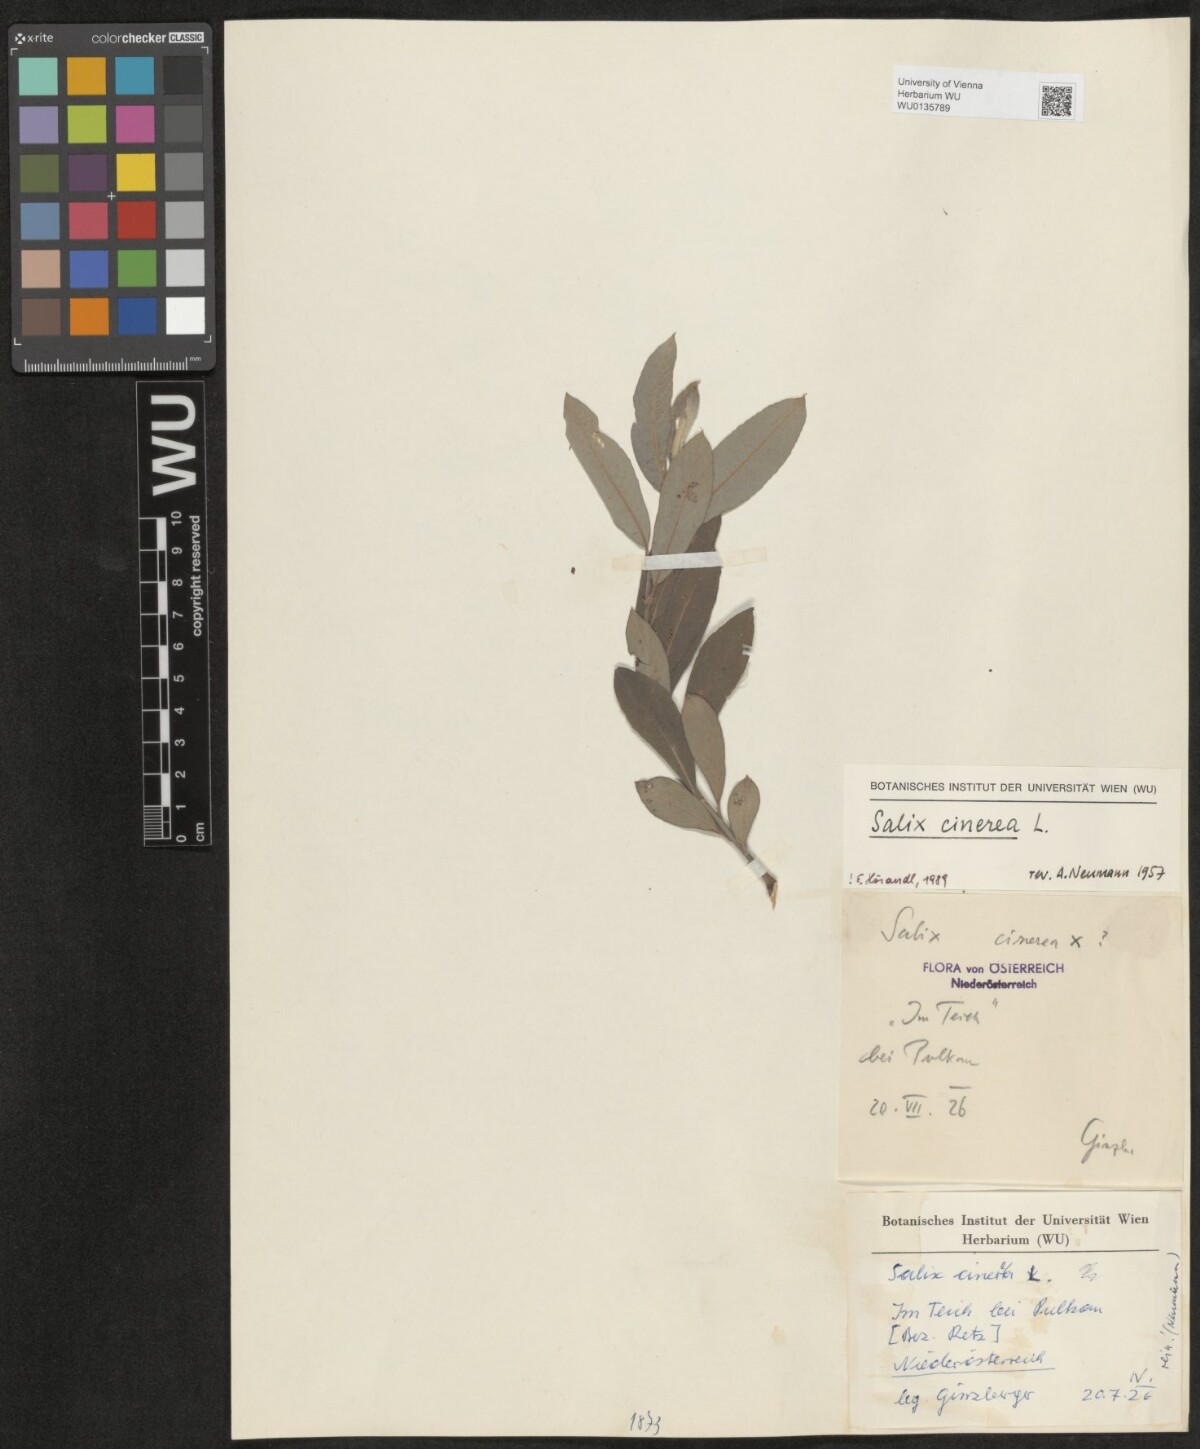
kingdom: Plantae
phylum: Tracheophyta
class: Magnoliopsida
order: Malpighiales
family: Salicaceae
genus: Salix
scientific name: Salix cinerea
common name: Common sallow
